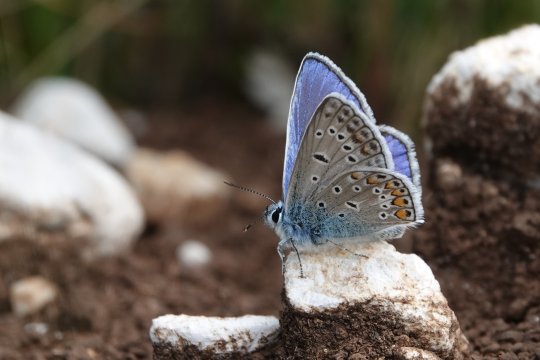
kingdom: Animalia
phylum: Arthropoda
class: Insecta
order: Lepidoptera
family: Lycaenidae
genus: Polyommatus
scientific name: Polyommatus icarus
